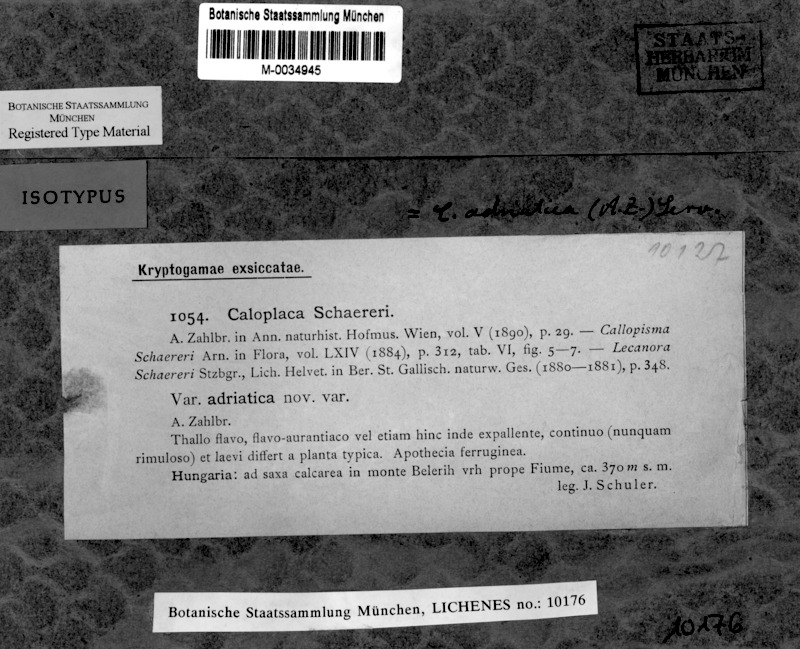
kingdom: Fungi
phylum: Ascomycota
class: Lecanoromycetes
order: Teloschistales
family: Teloschistaceae
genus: Caloplaca
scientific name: Caloplaca adriatica
